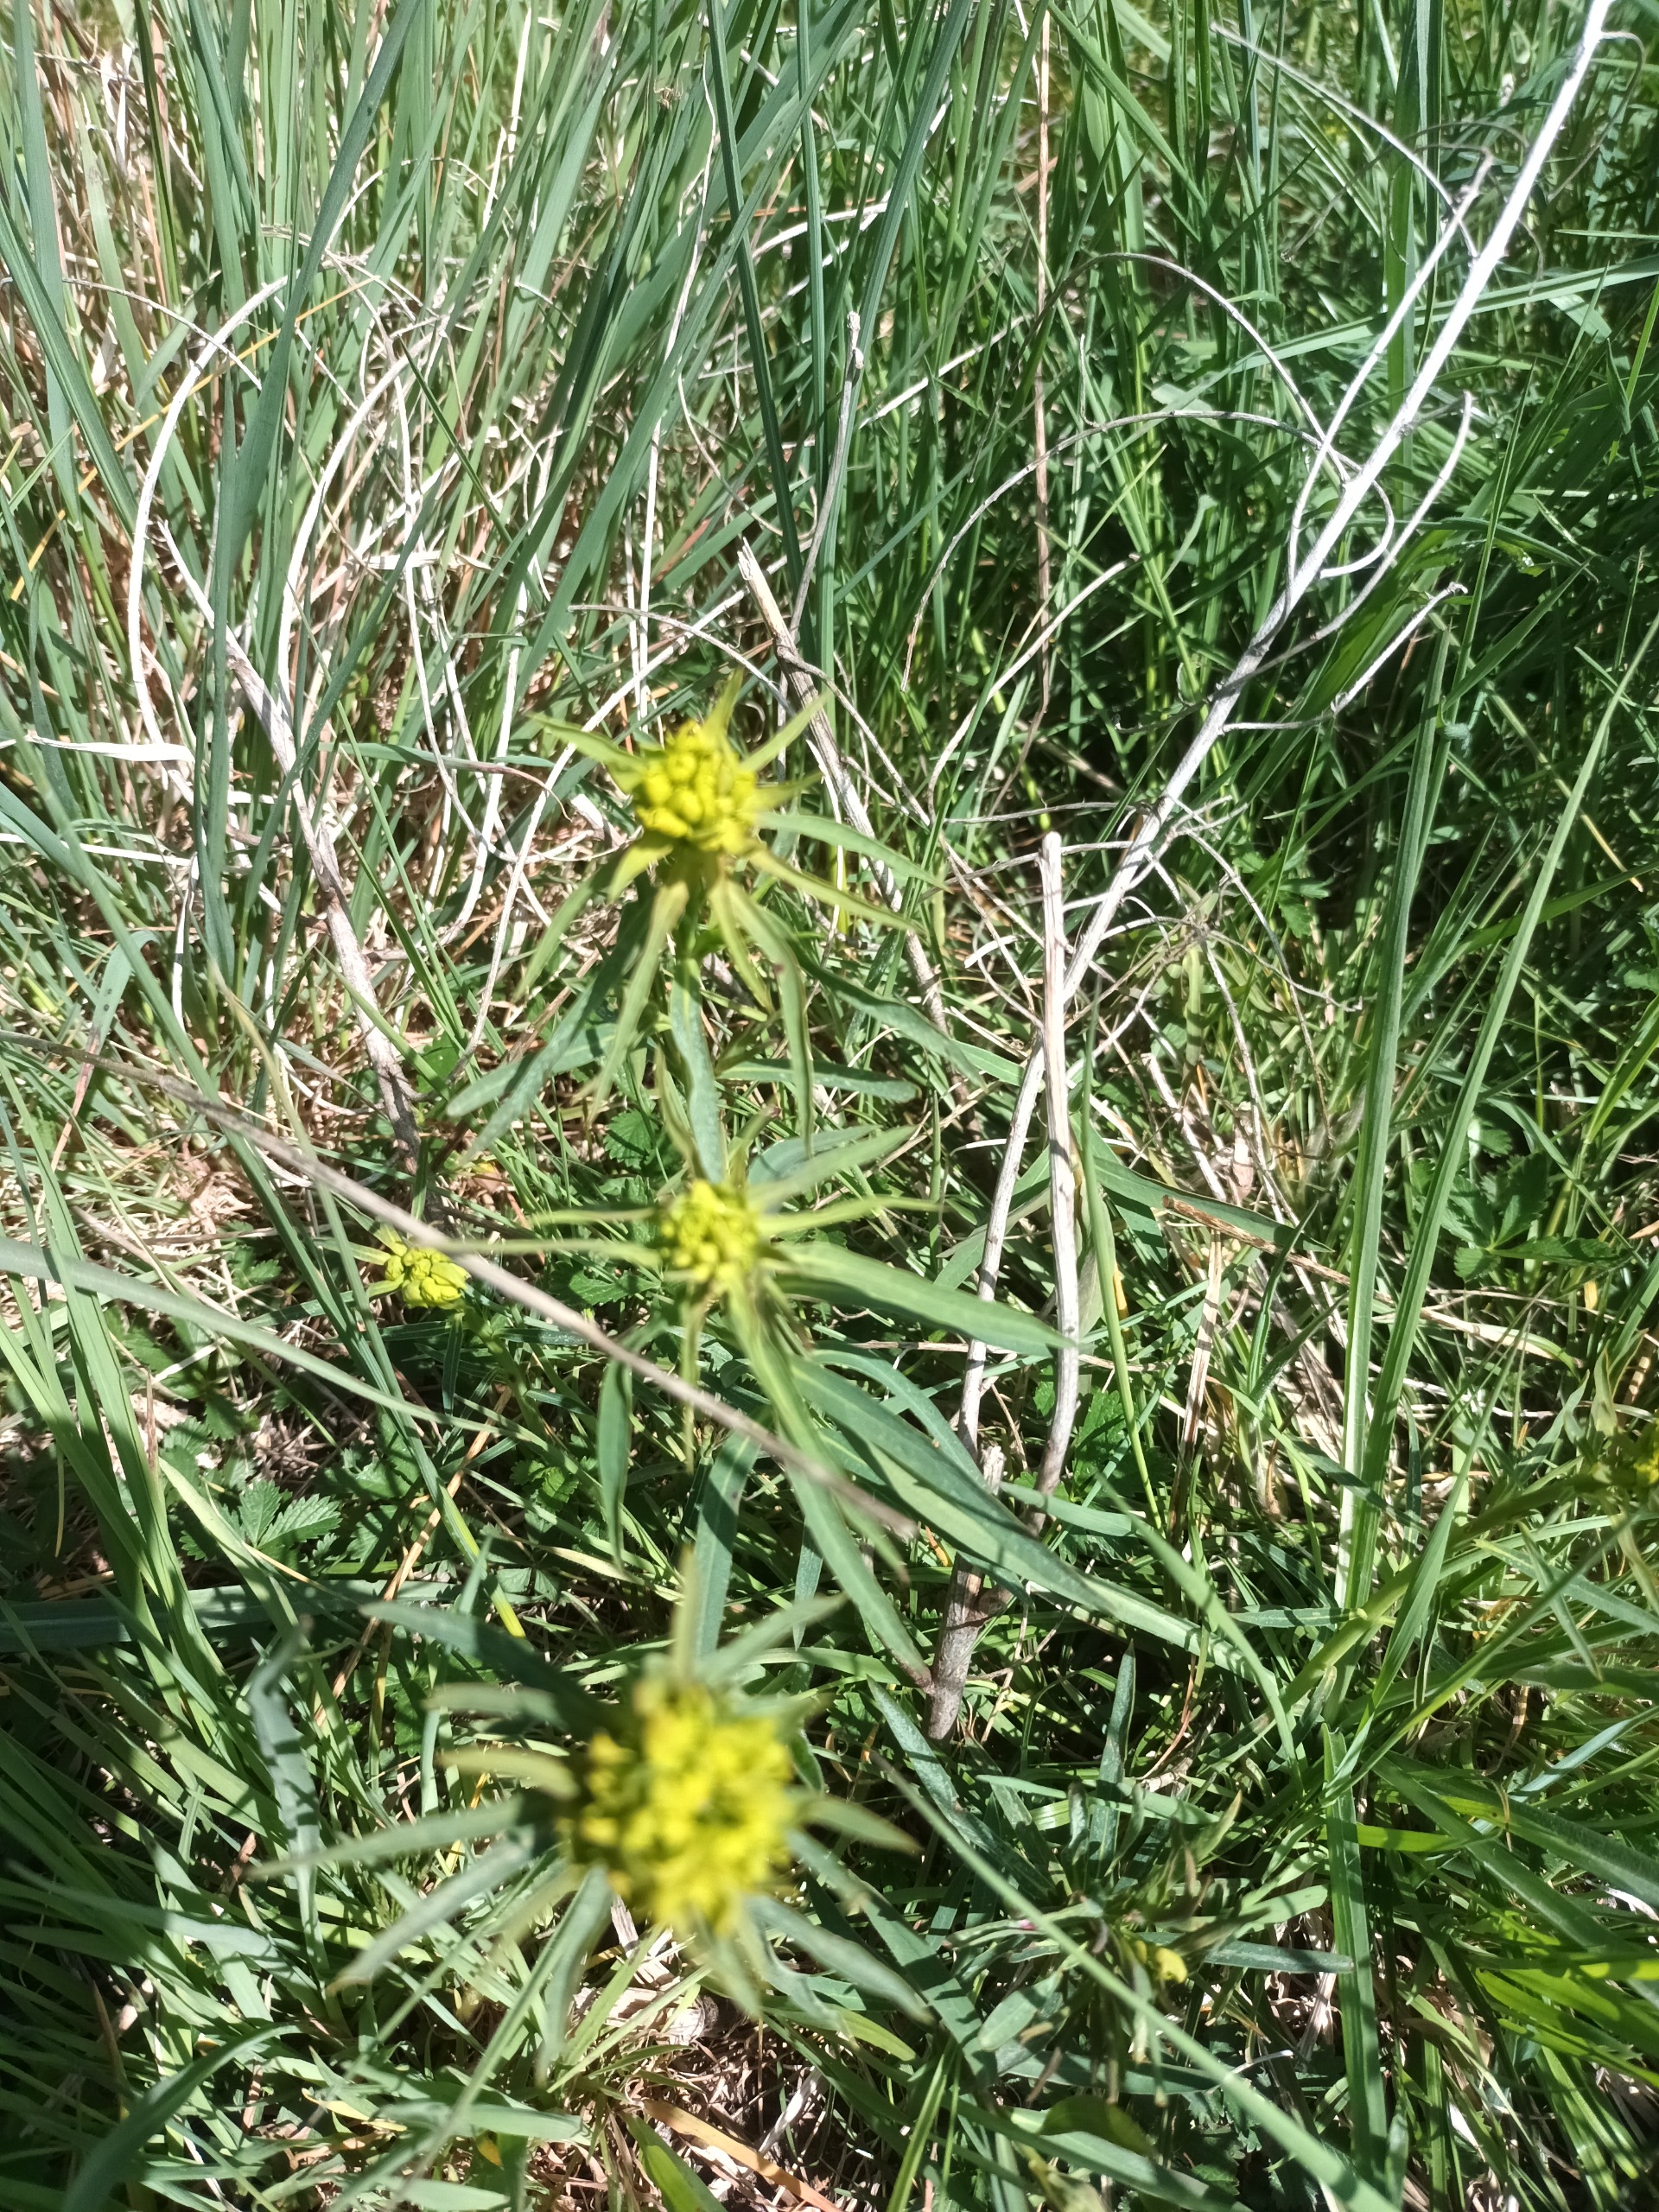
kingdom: Plantae
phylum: Tracheophyta
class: Magnoliopsida
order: Malpighiales
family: Euphorbiaceae
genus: Euphorbia
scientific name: Euphorbia tommasiniana
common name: Ris-vortemælk
